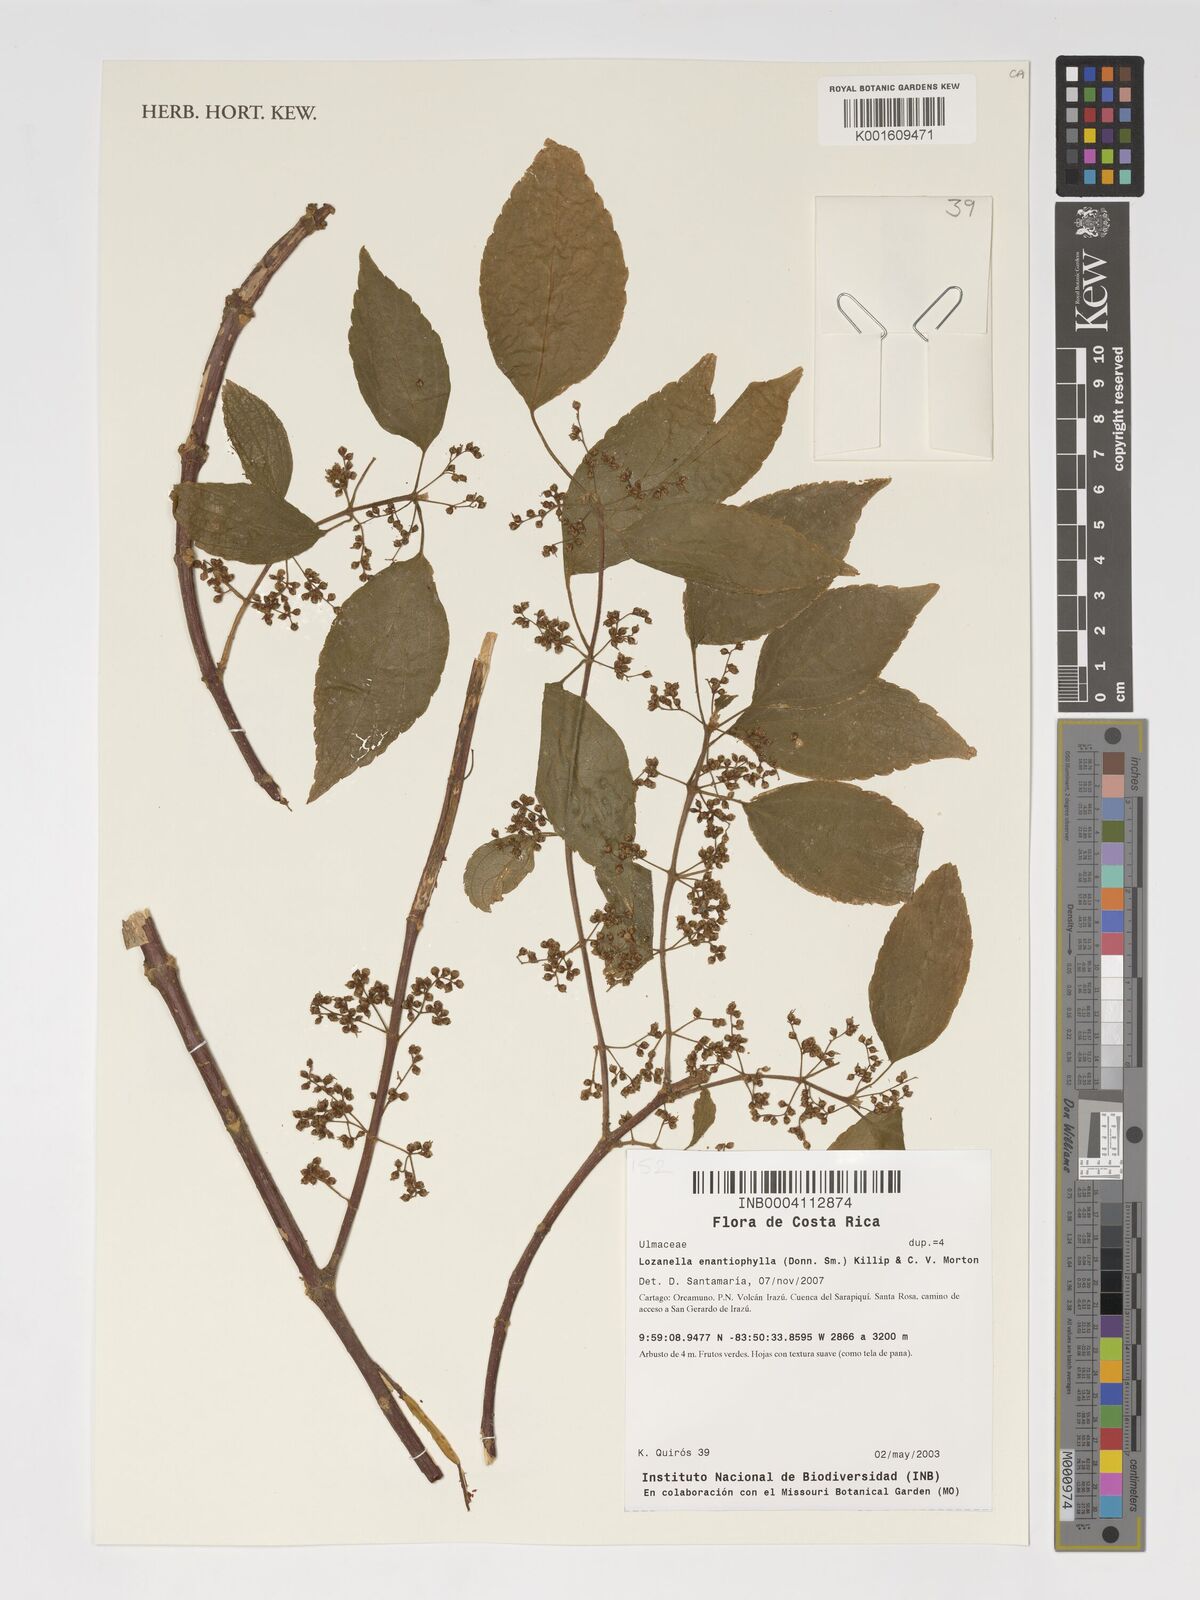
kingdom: Plantae
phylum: Tracheophyta
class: Magnoliopsida
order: Rosales
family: Cannabaceae
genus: Lozanella
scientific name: Lozanella enantiophylla
